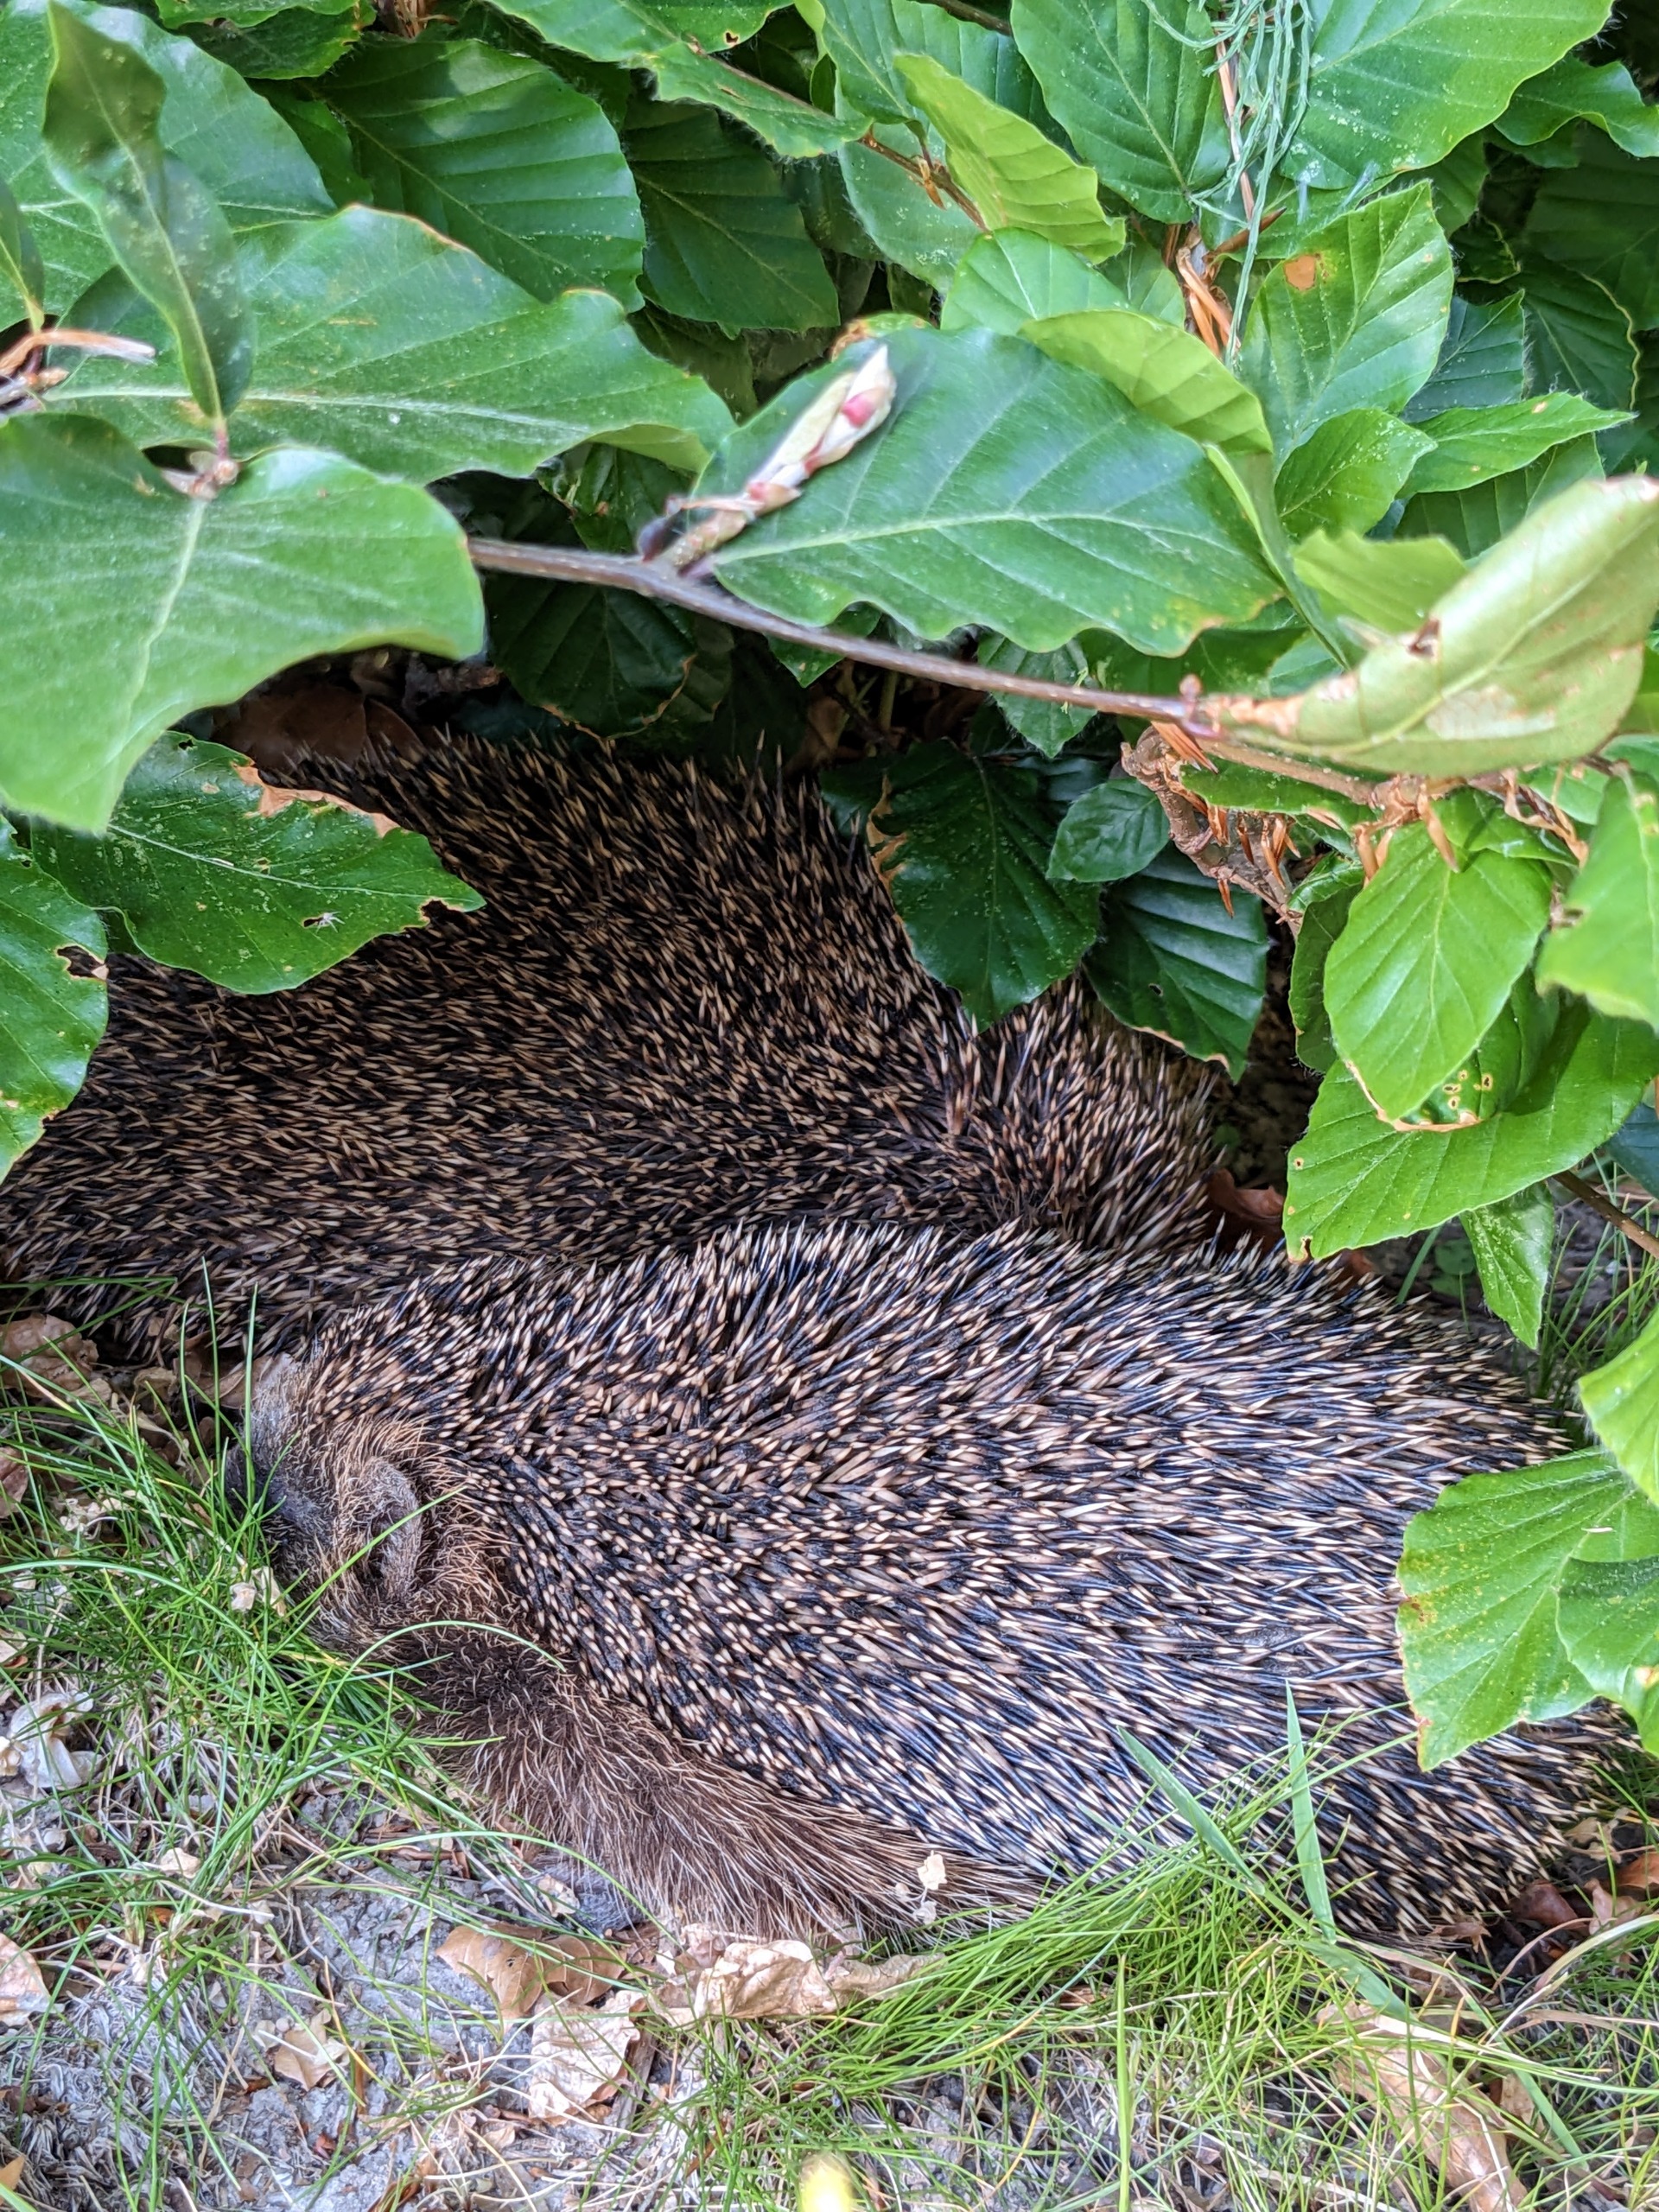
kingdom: Animalia
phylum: Chordata
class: Mammalia
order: Erinaceomorpha
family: Erinaceidae
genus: Erinaceus
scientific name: Erinaceus europaeus
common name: Pindsvin
